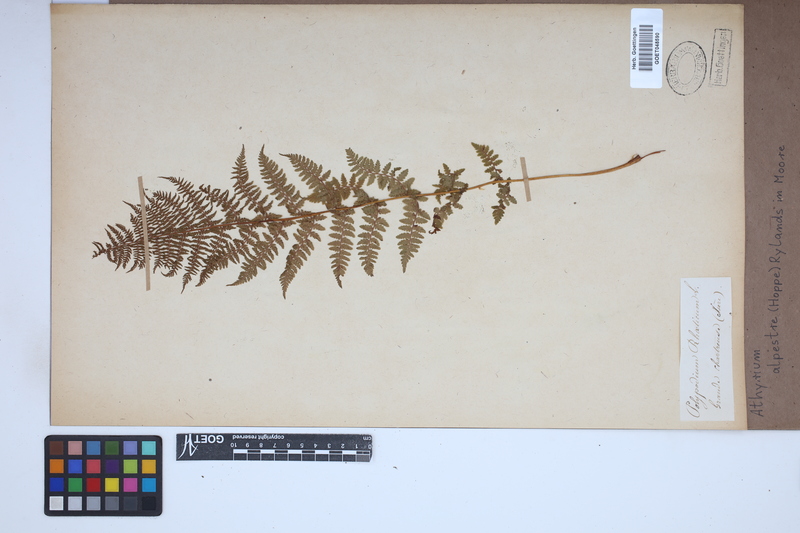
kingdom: Plantae
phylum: Tracheophyta
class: Polypodiopsida
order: Polypodiales
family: Athyriaceae
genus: Pseudathyrium
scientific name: Pseudathyrium alpestre
